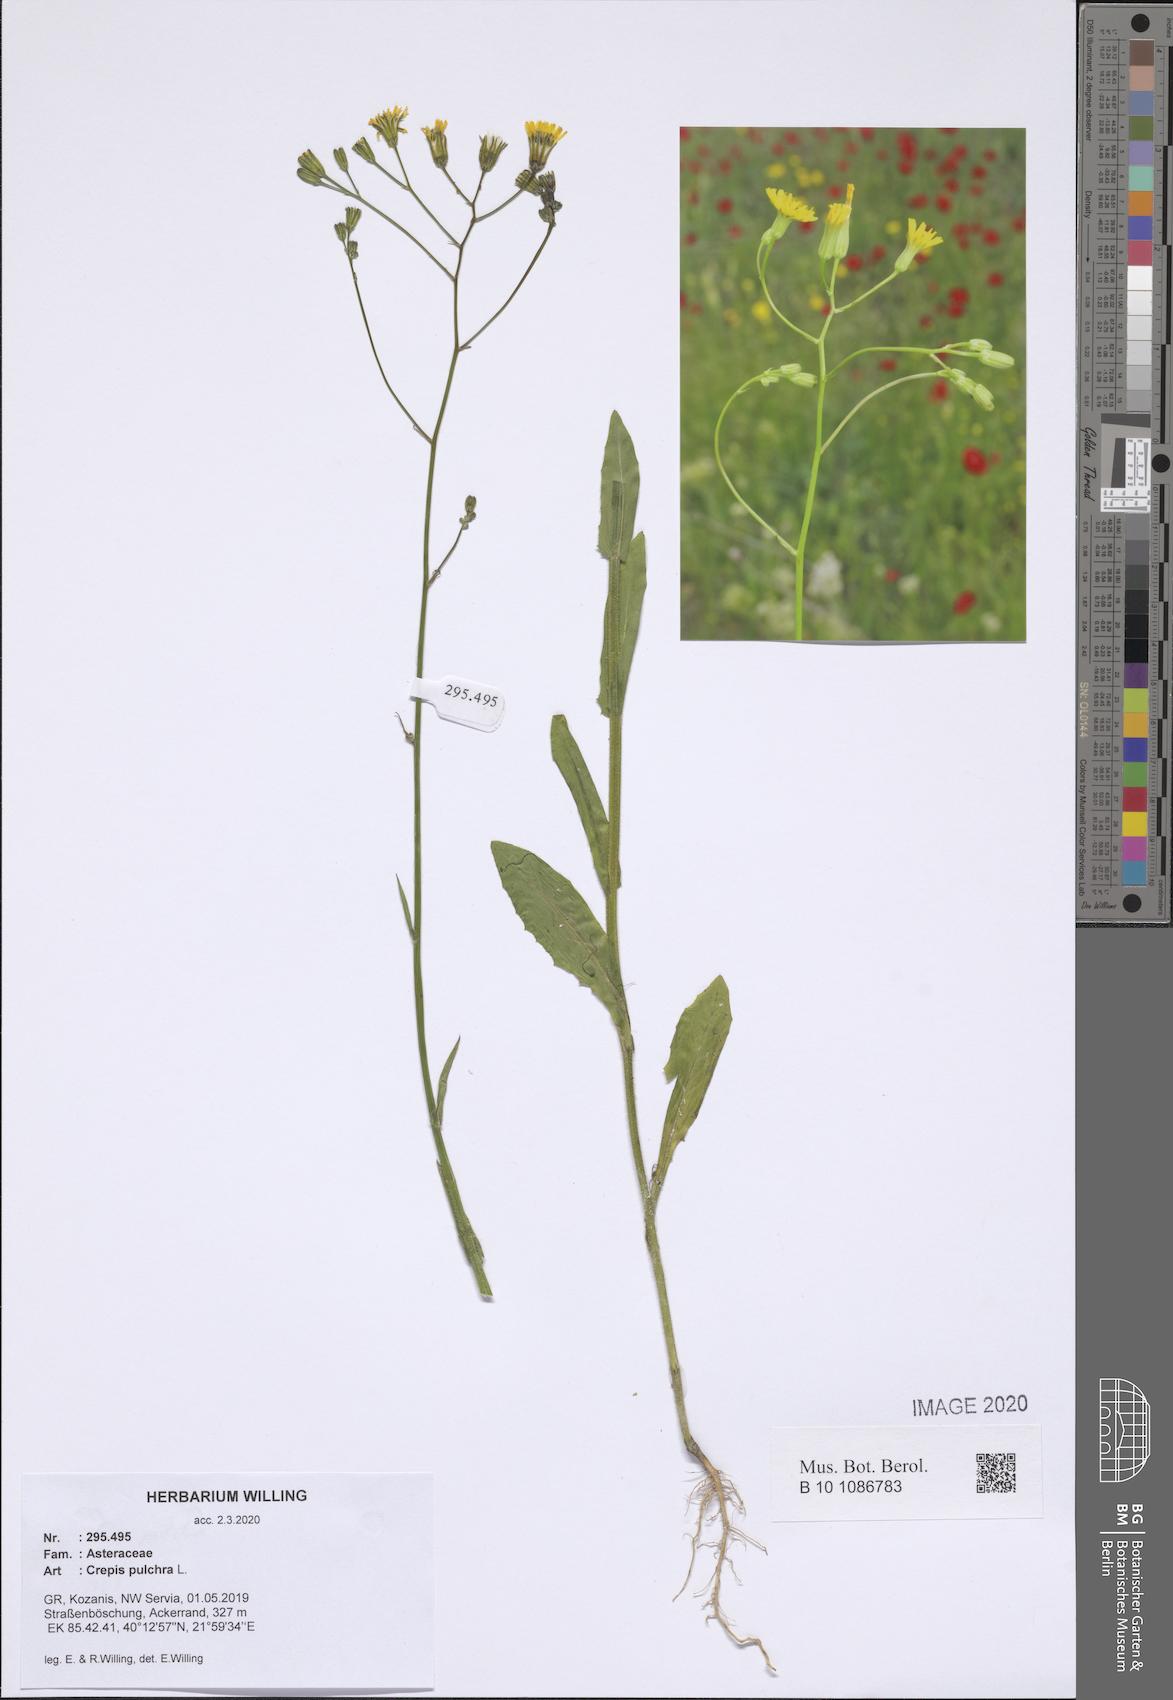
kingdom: Plantae
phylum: Tracheophyta
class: Magnoliopsida
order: Asterales
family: Asteraceae
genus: Crepis
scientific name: Crepis pulchra
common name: Hawk's-beard
